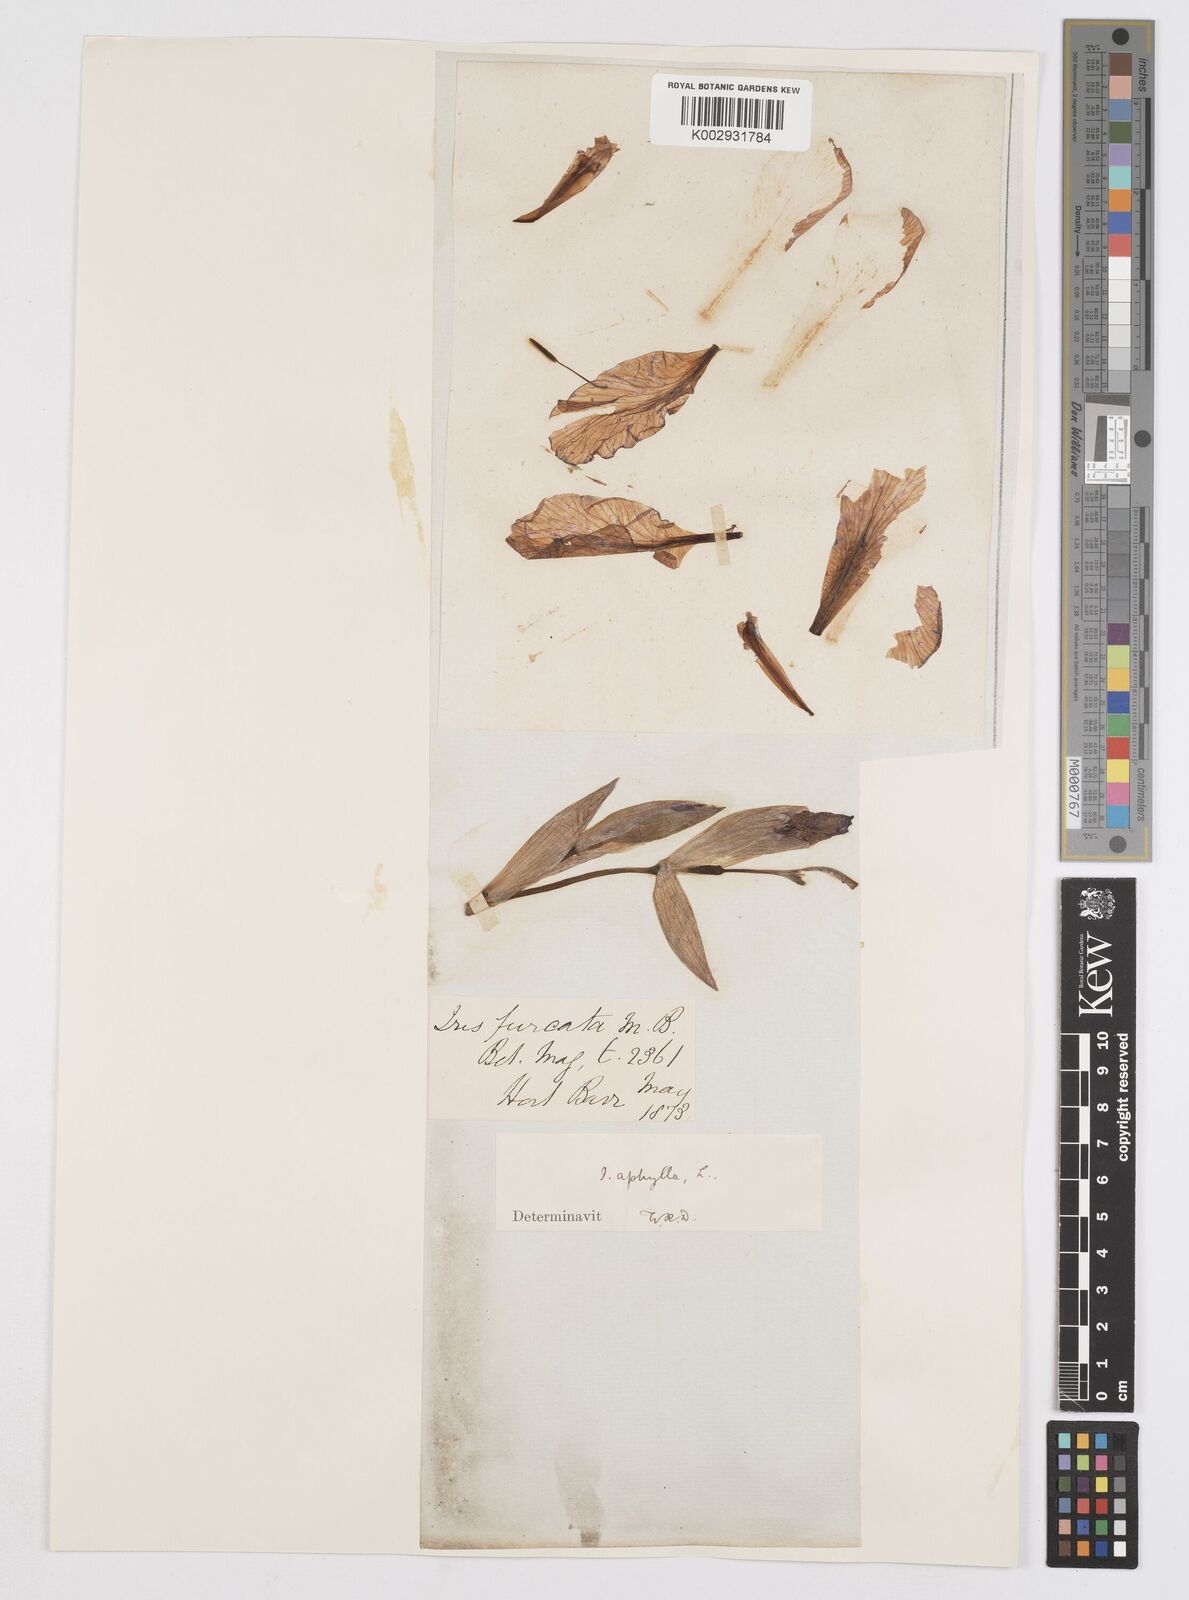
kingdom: Plantae
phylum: Tracheophyta
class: Liliopsida
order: Asparagales
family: Iridaceae
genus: Iris
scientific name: Iris aphylla
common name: Stool iris
